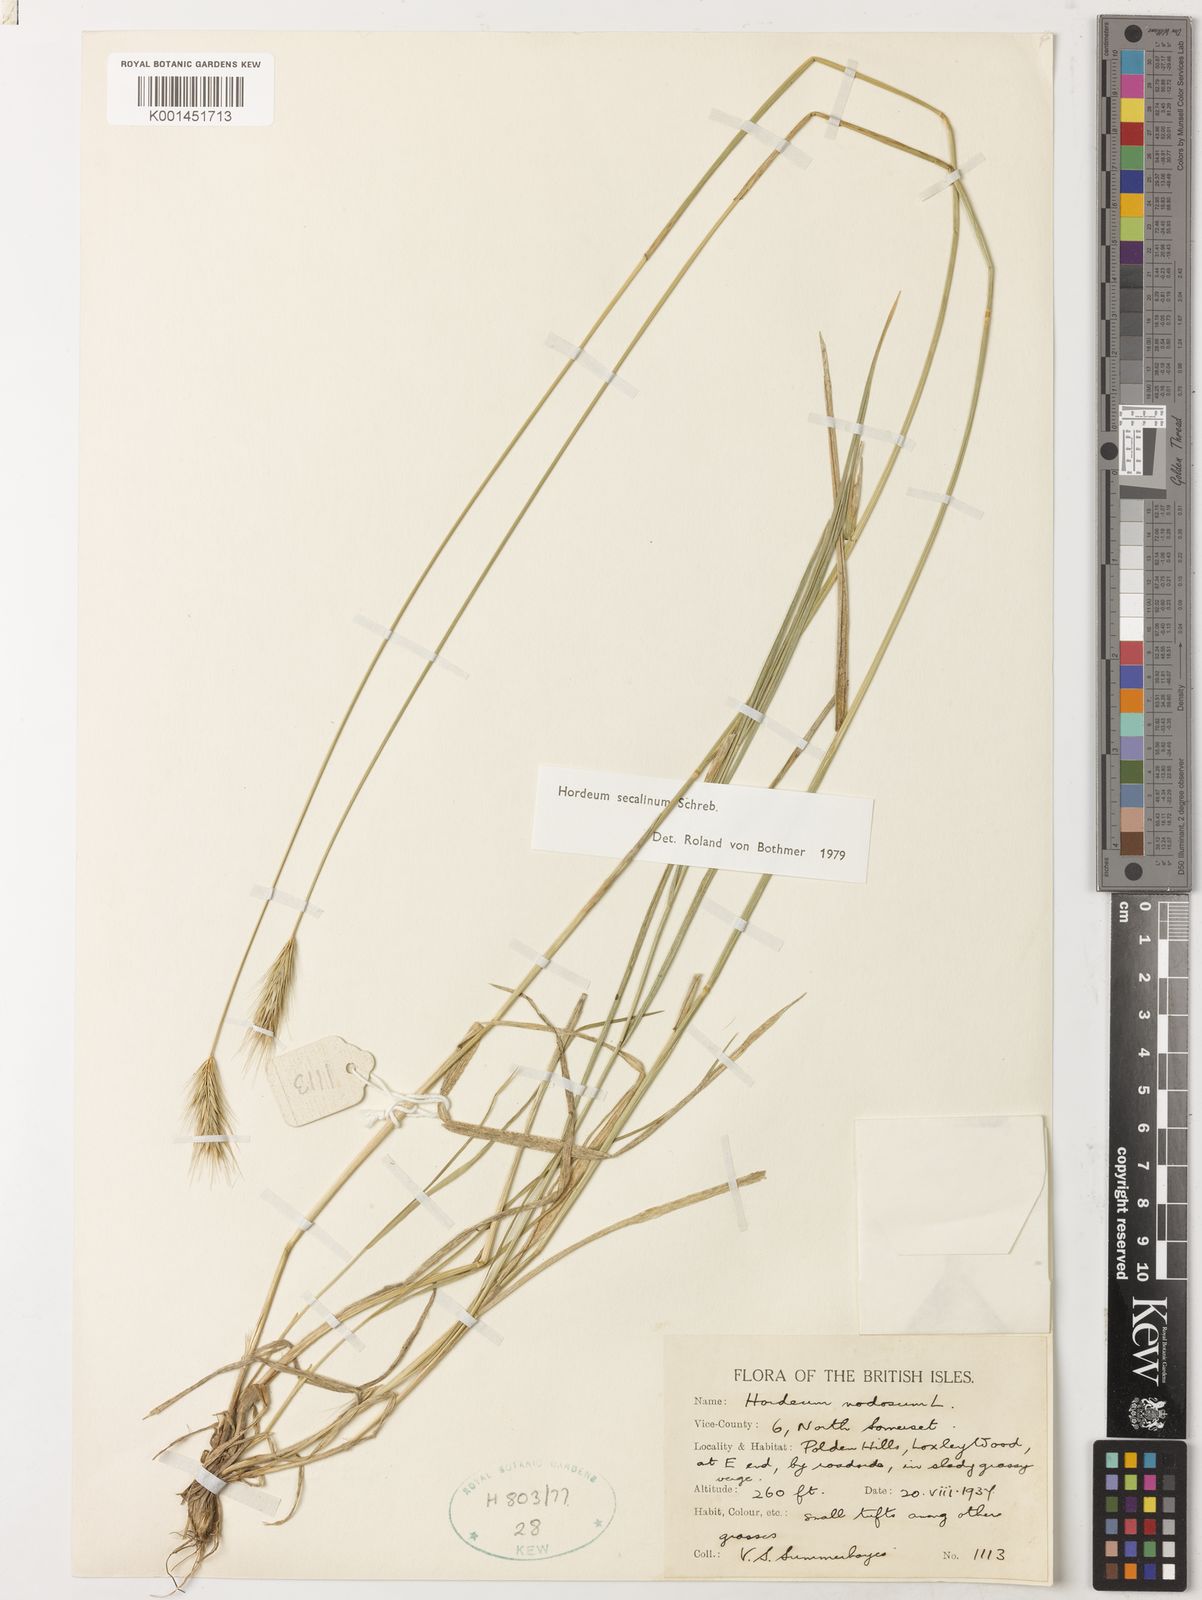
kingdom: Plantae
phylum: Tracheophyta
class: Liliopsida
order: Poales
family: Poaceae
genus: Hordeum
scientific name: Hordeum
